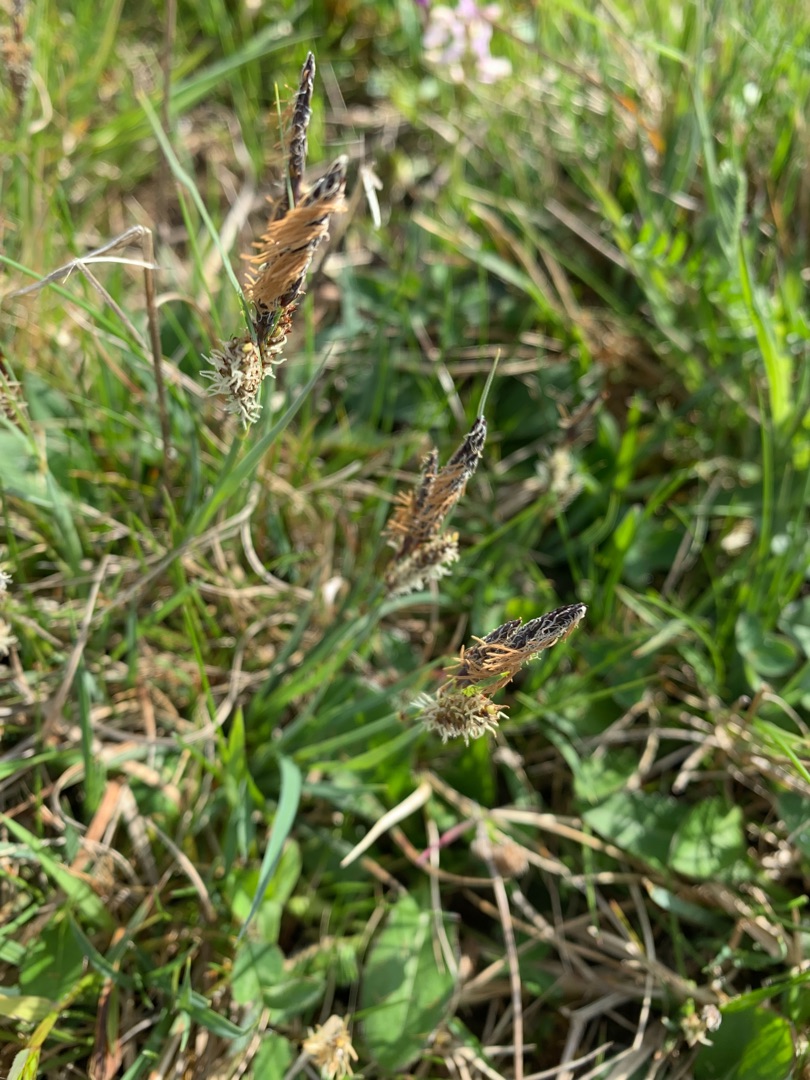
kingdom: Plantae
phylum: Tracheophyta
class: Liliopsida
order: Poales
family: Cyperaceae
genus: Carex
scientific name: Carex flacca
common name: Blågrøn star
